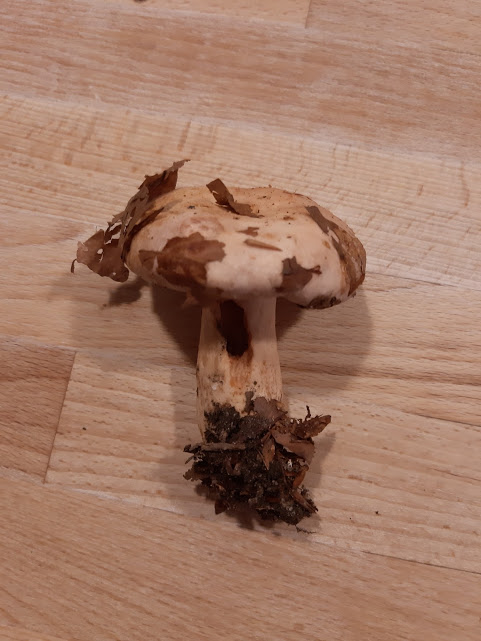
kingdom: Fungi
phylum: Basidiomycota
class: Agaricomycetes
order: Russulales
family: Russulaceae
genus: Lactarius
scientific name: Lactarius pallidus
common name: bleg mælkehat
